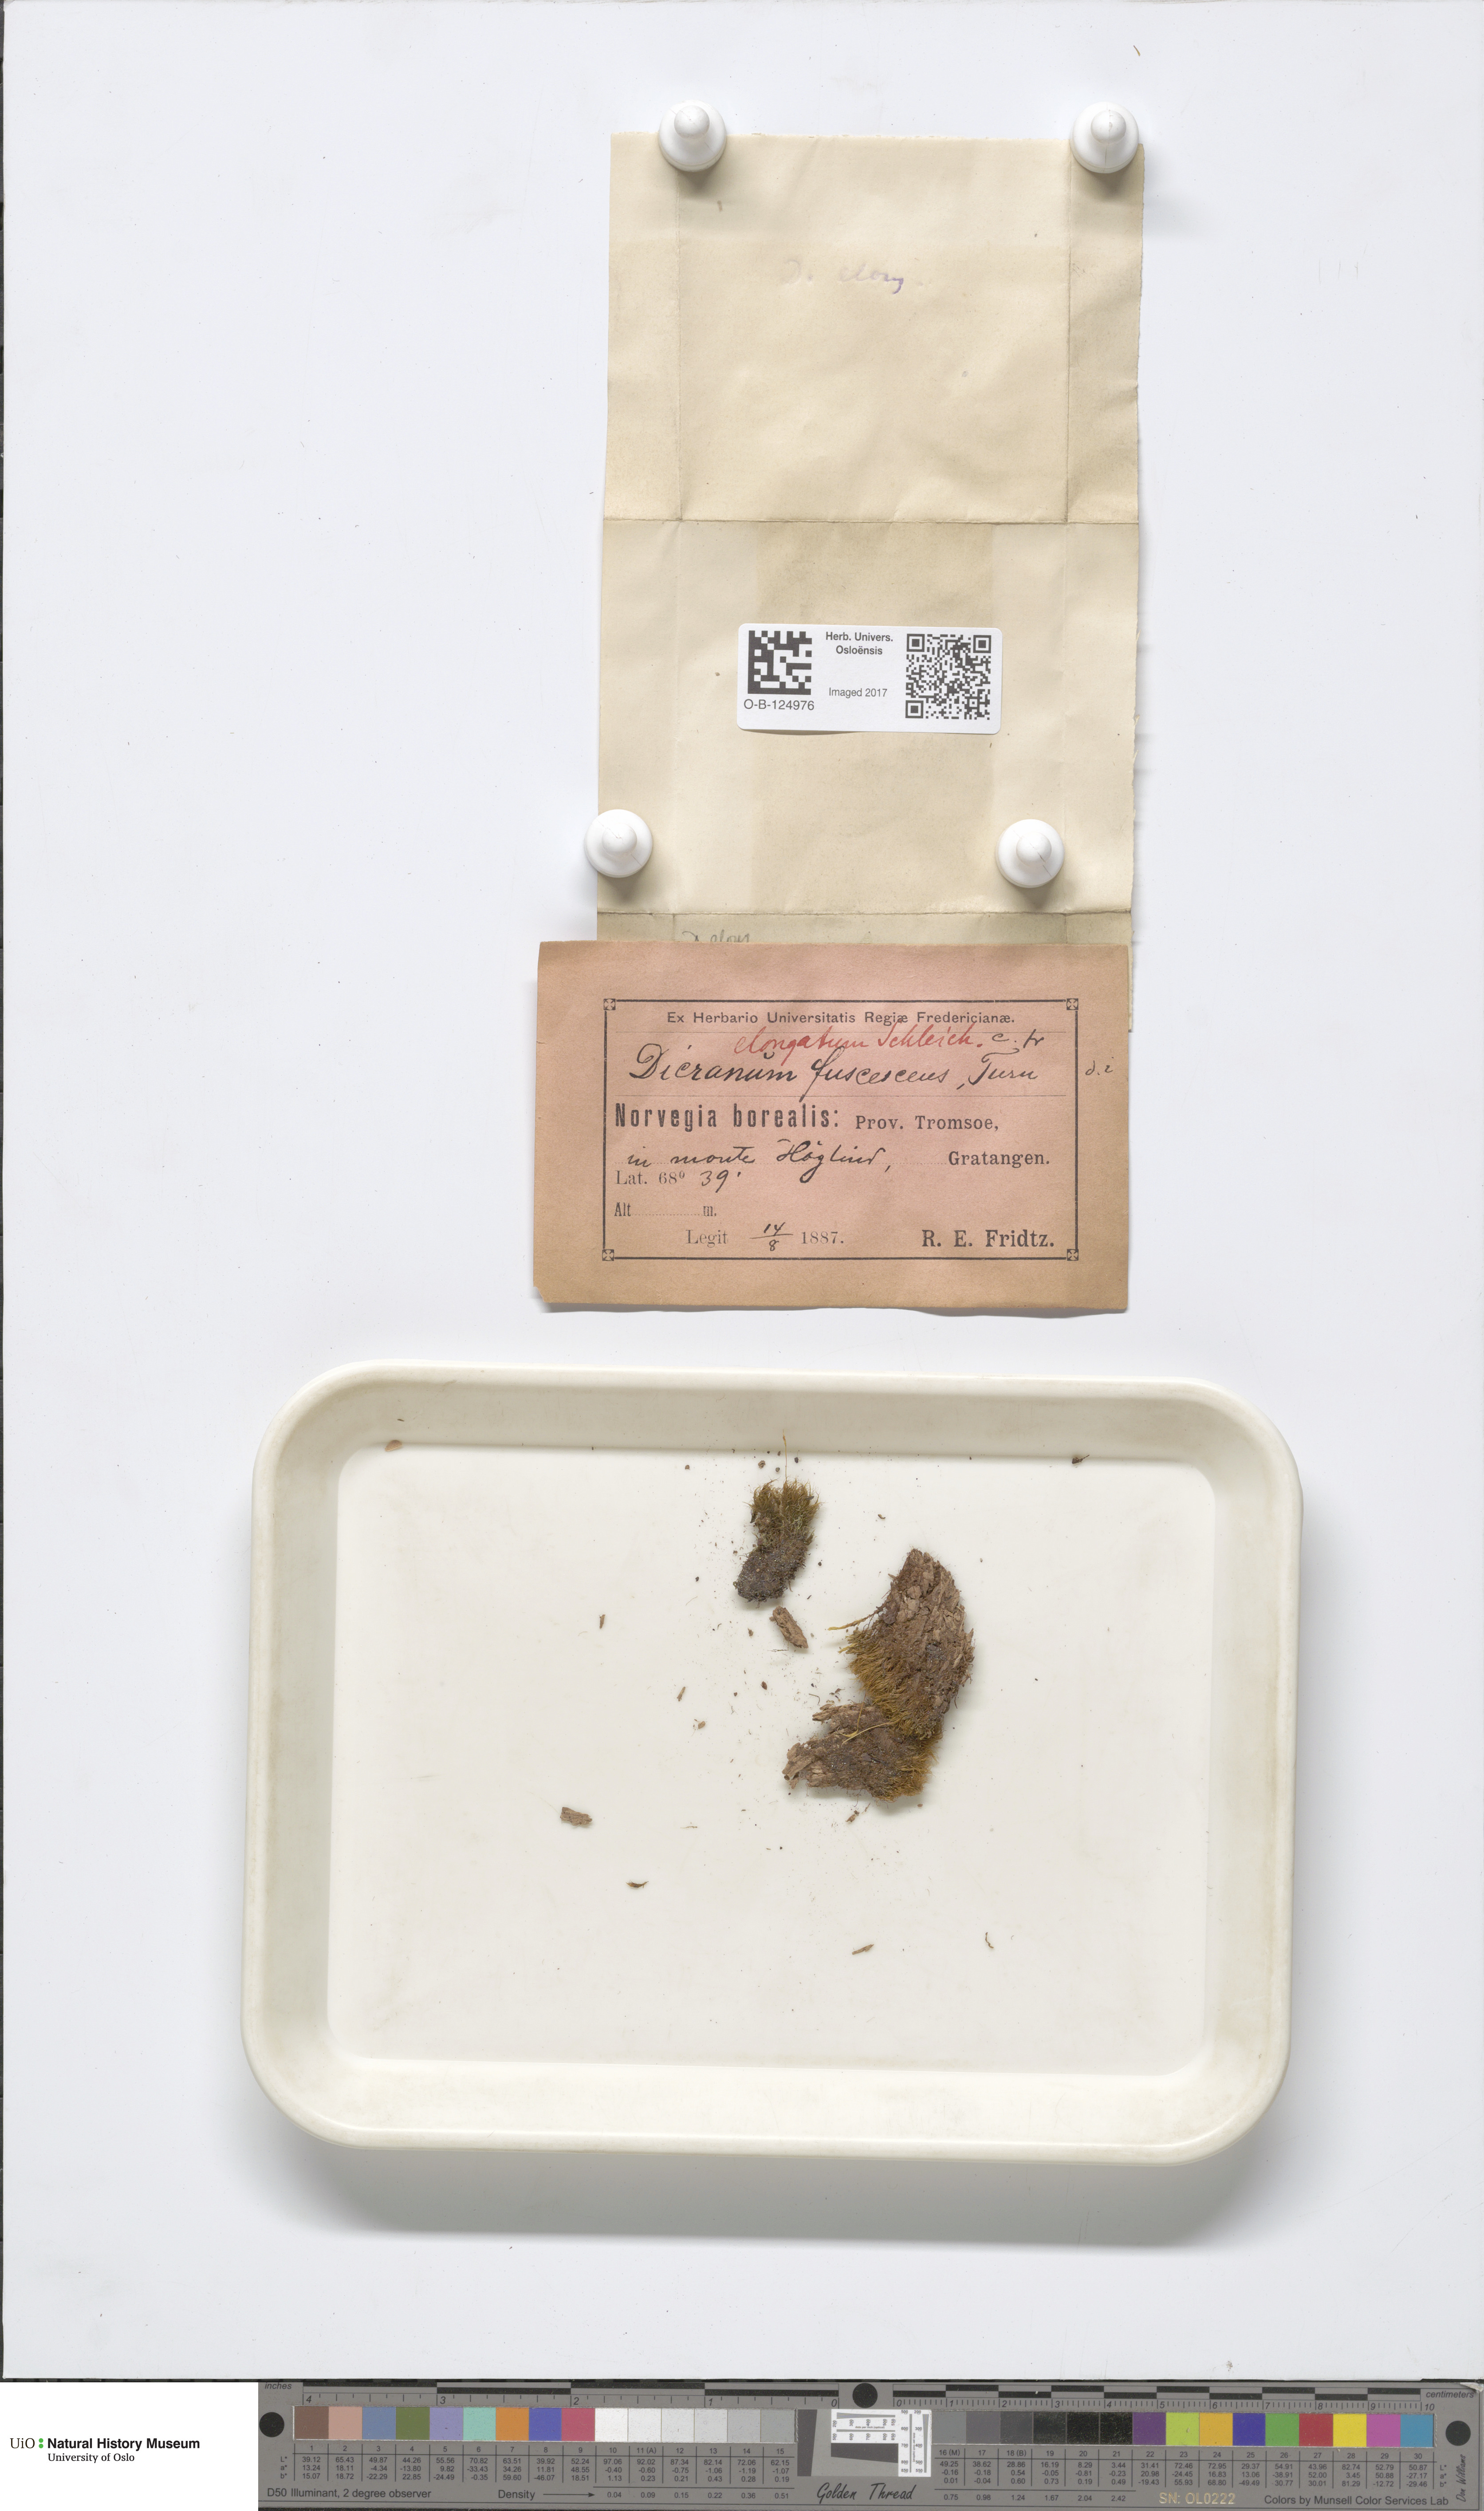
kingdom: Plantae
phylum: Bryophyta
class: Bryopsida
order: Dicranales
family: Dicranaceae
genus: Dicranum
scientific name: Dicranum elongatum
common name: Long-forked broom moss
